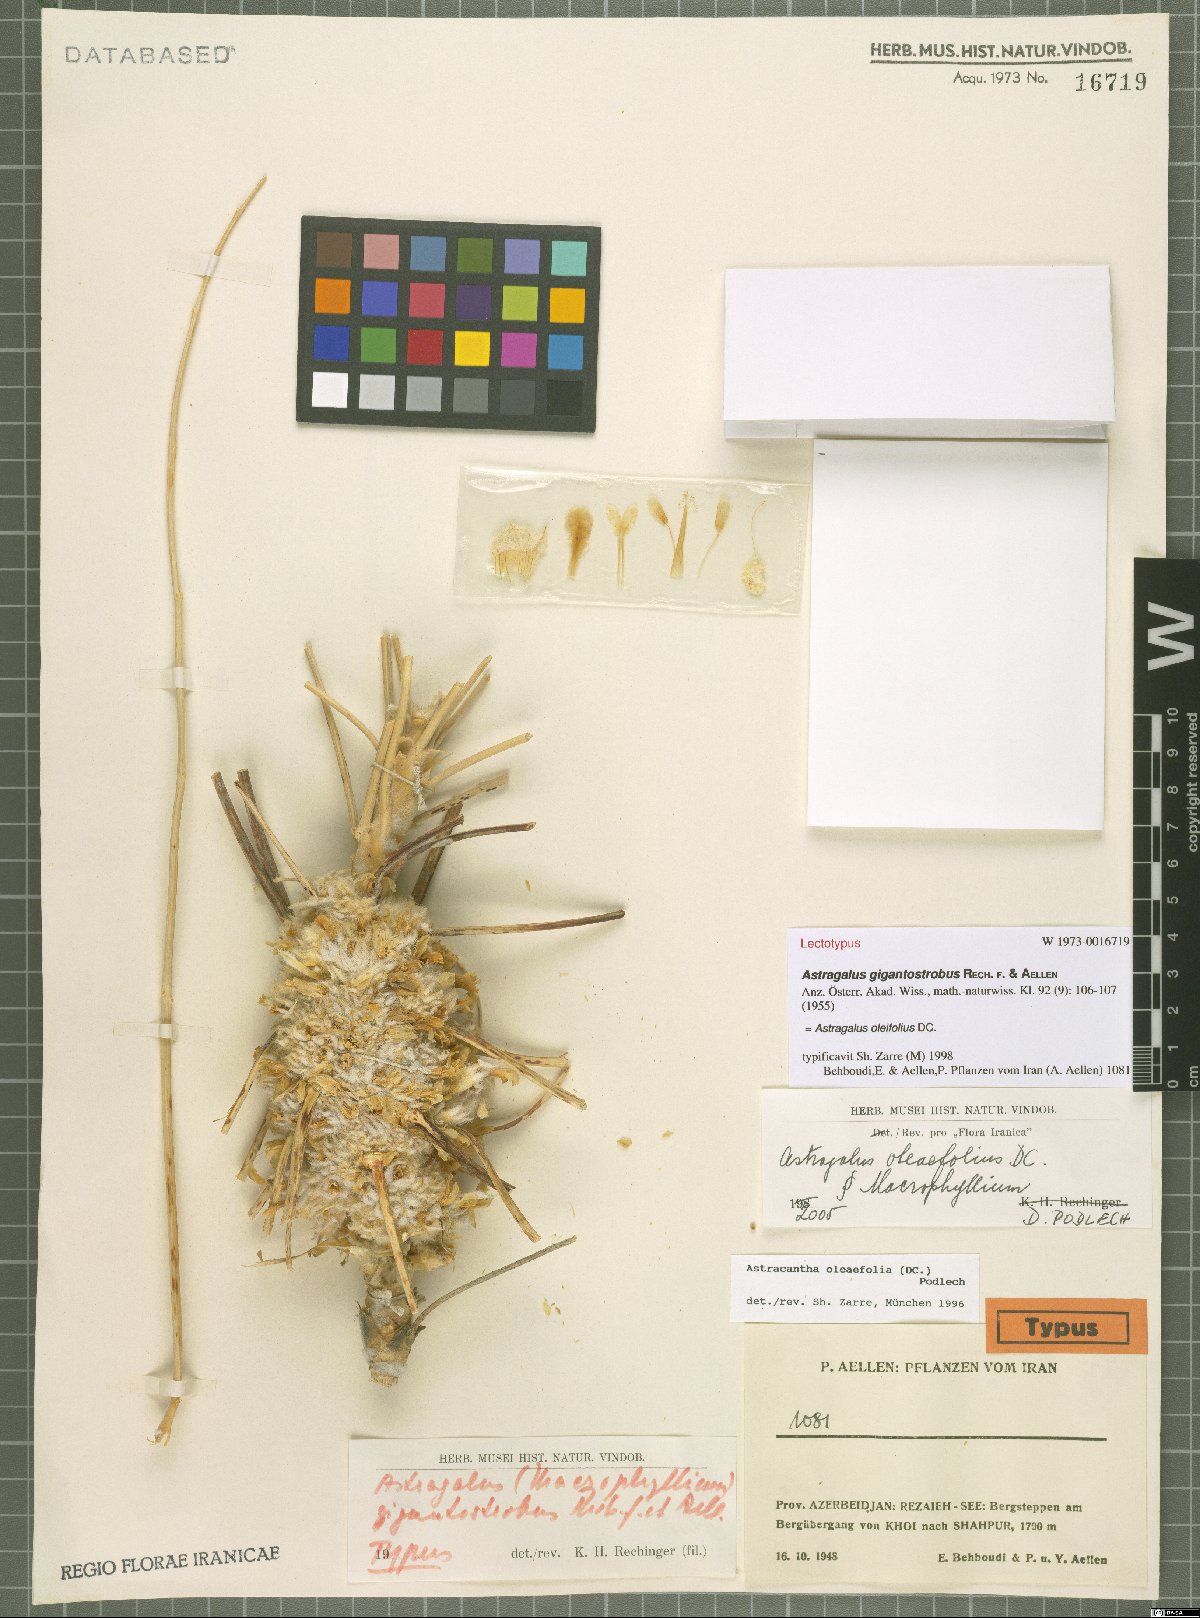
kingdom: Plantae
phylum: Tracheophyta
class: Magnoliopsida
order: Fabales
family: Fabaceae
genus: Astragalus
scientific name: Astragalus oleifolius
